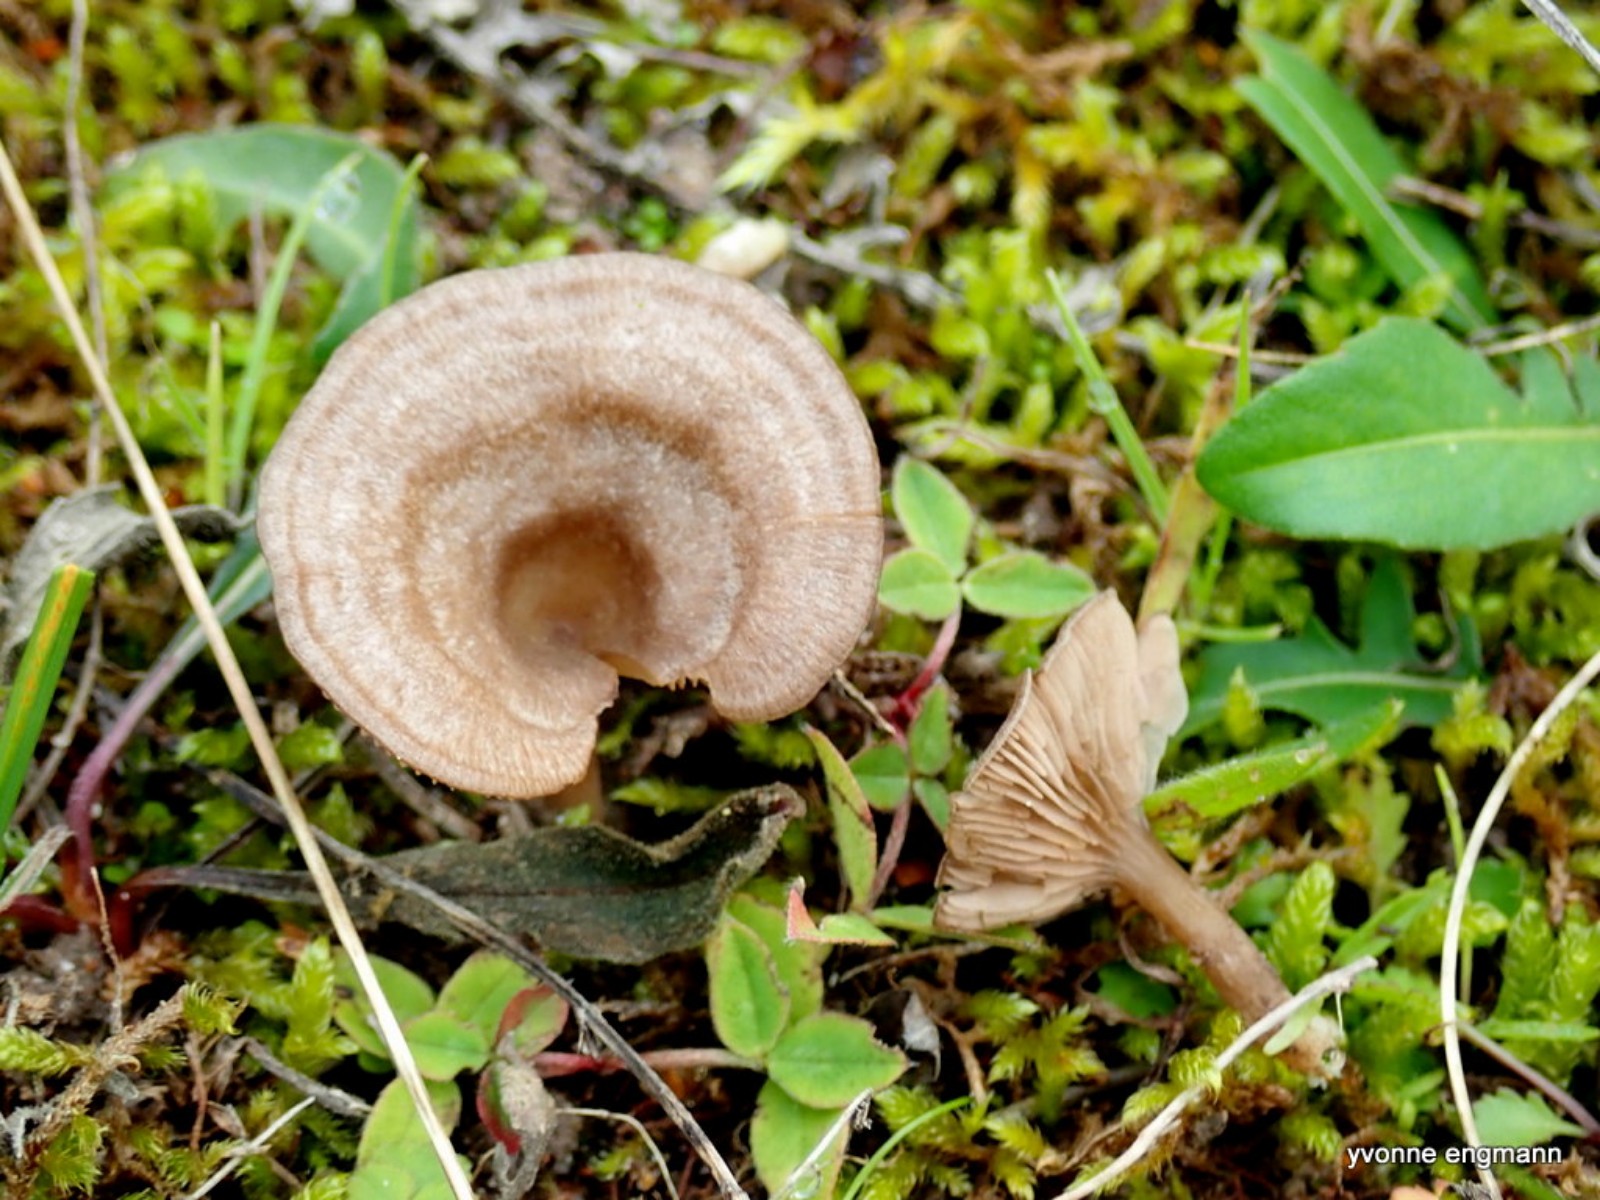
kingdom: Fungi
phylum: Basidiomycota
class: Agaricomycetes
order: Agaricales
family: Entolomataceae
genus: Entoloma
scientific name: Entoloma undatum
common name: bæltet rødblad
